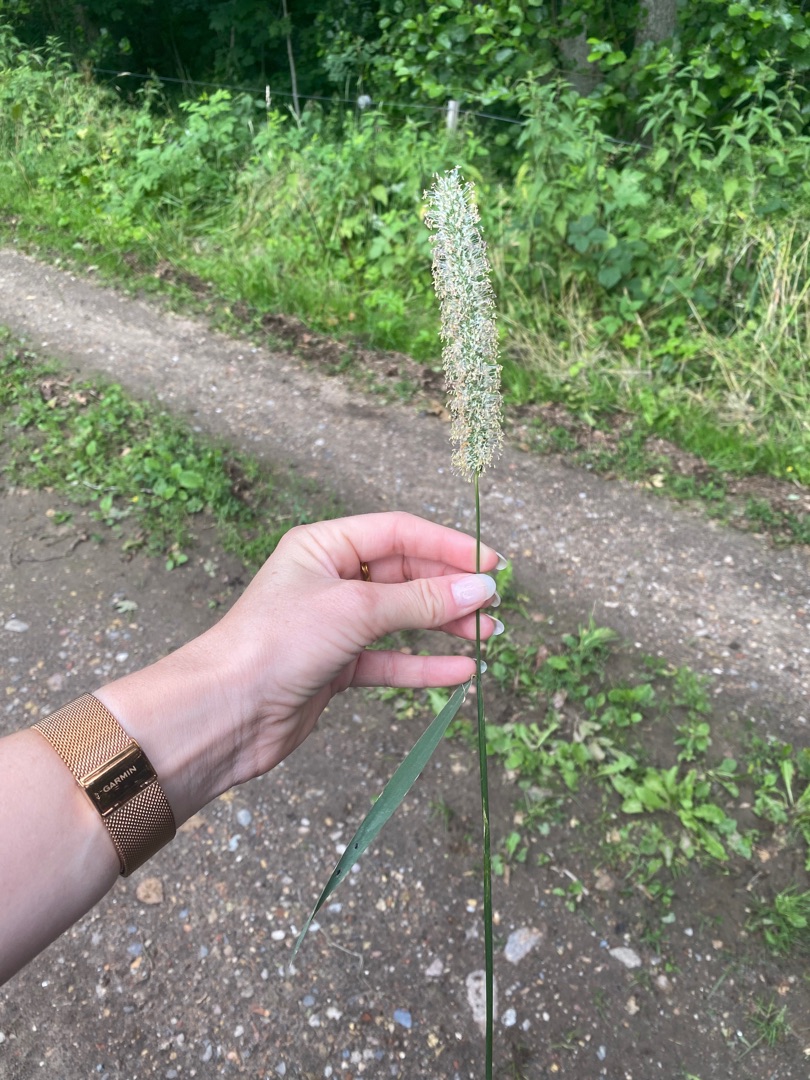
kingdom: Plantae
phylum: Tracheophyta
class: Liliopsida
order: Poales
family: Poaceae
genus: Phleum
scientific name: Phleum pratense
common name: Eng-rottehale
